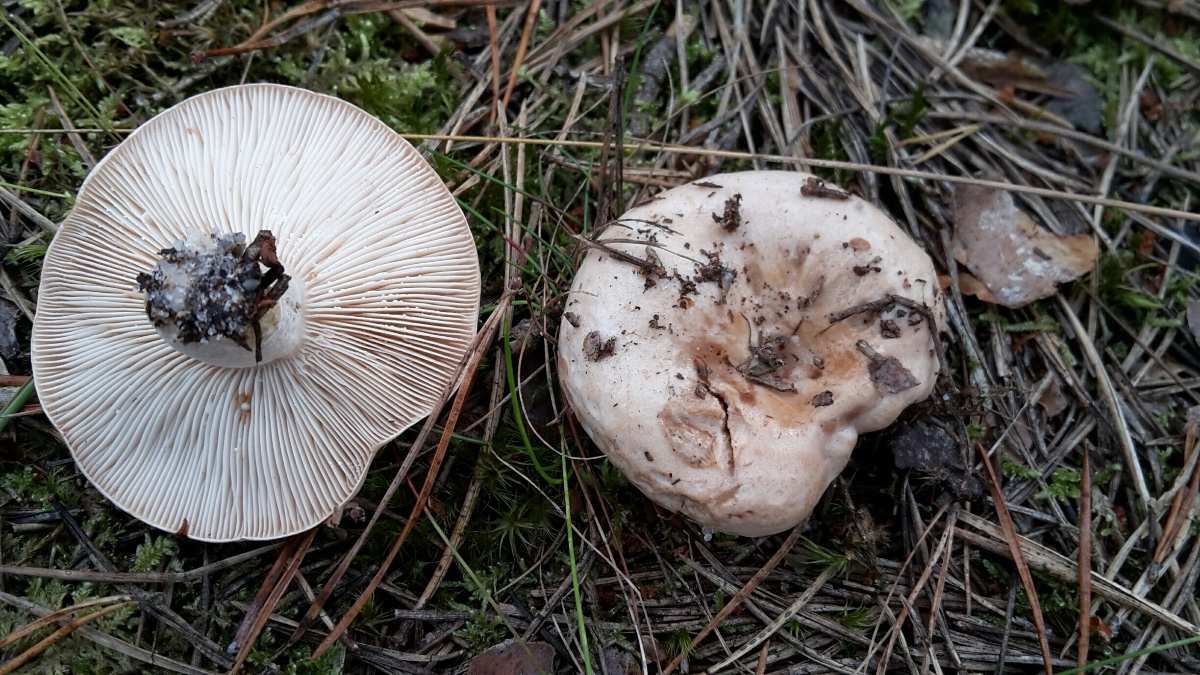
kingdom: Fungi
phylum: Basidiomycota
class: Agaricomycetes
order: Russulales
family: Russulaceae
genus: Lactarius
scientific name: Lactarius musteus
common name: elfenbens-mælkehat
